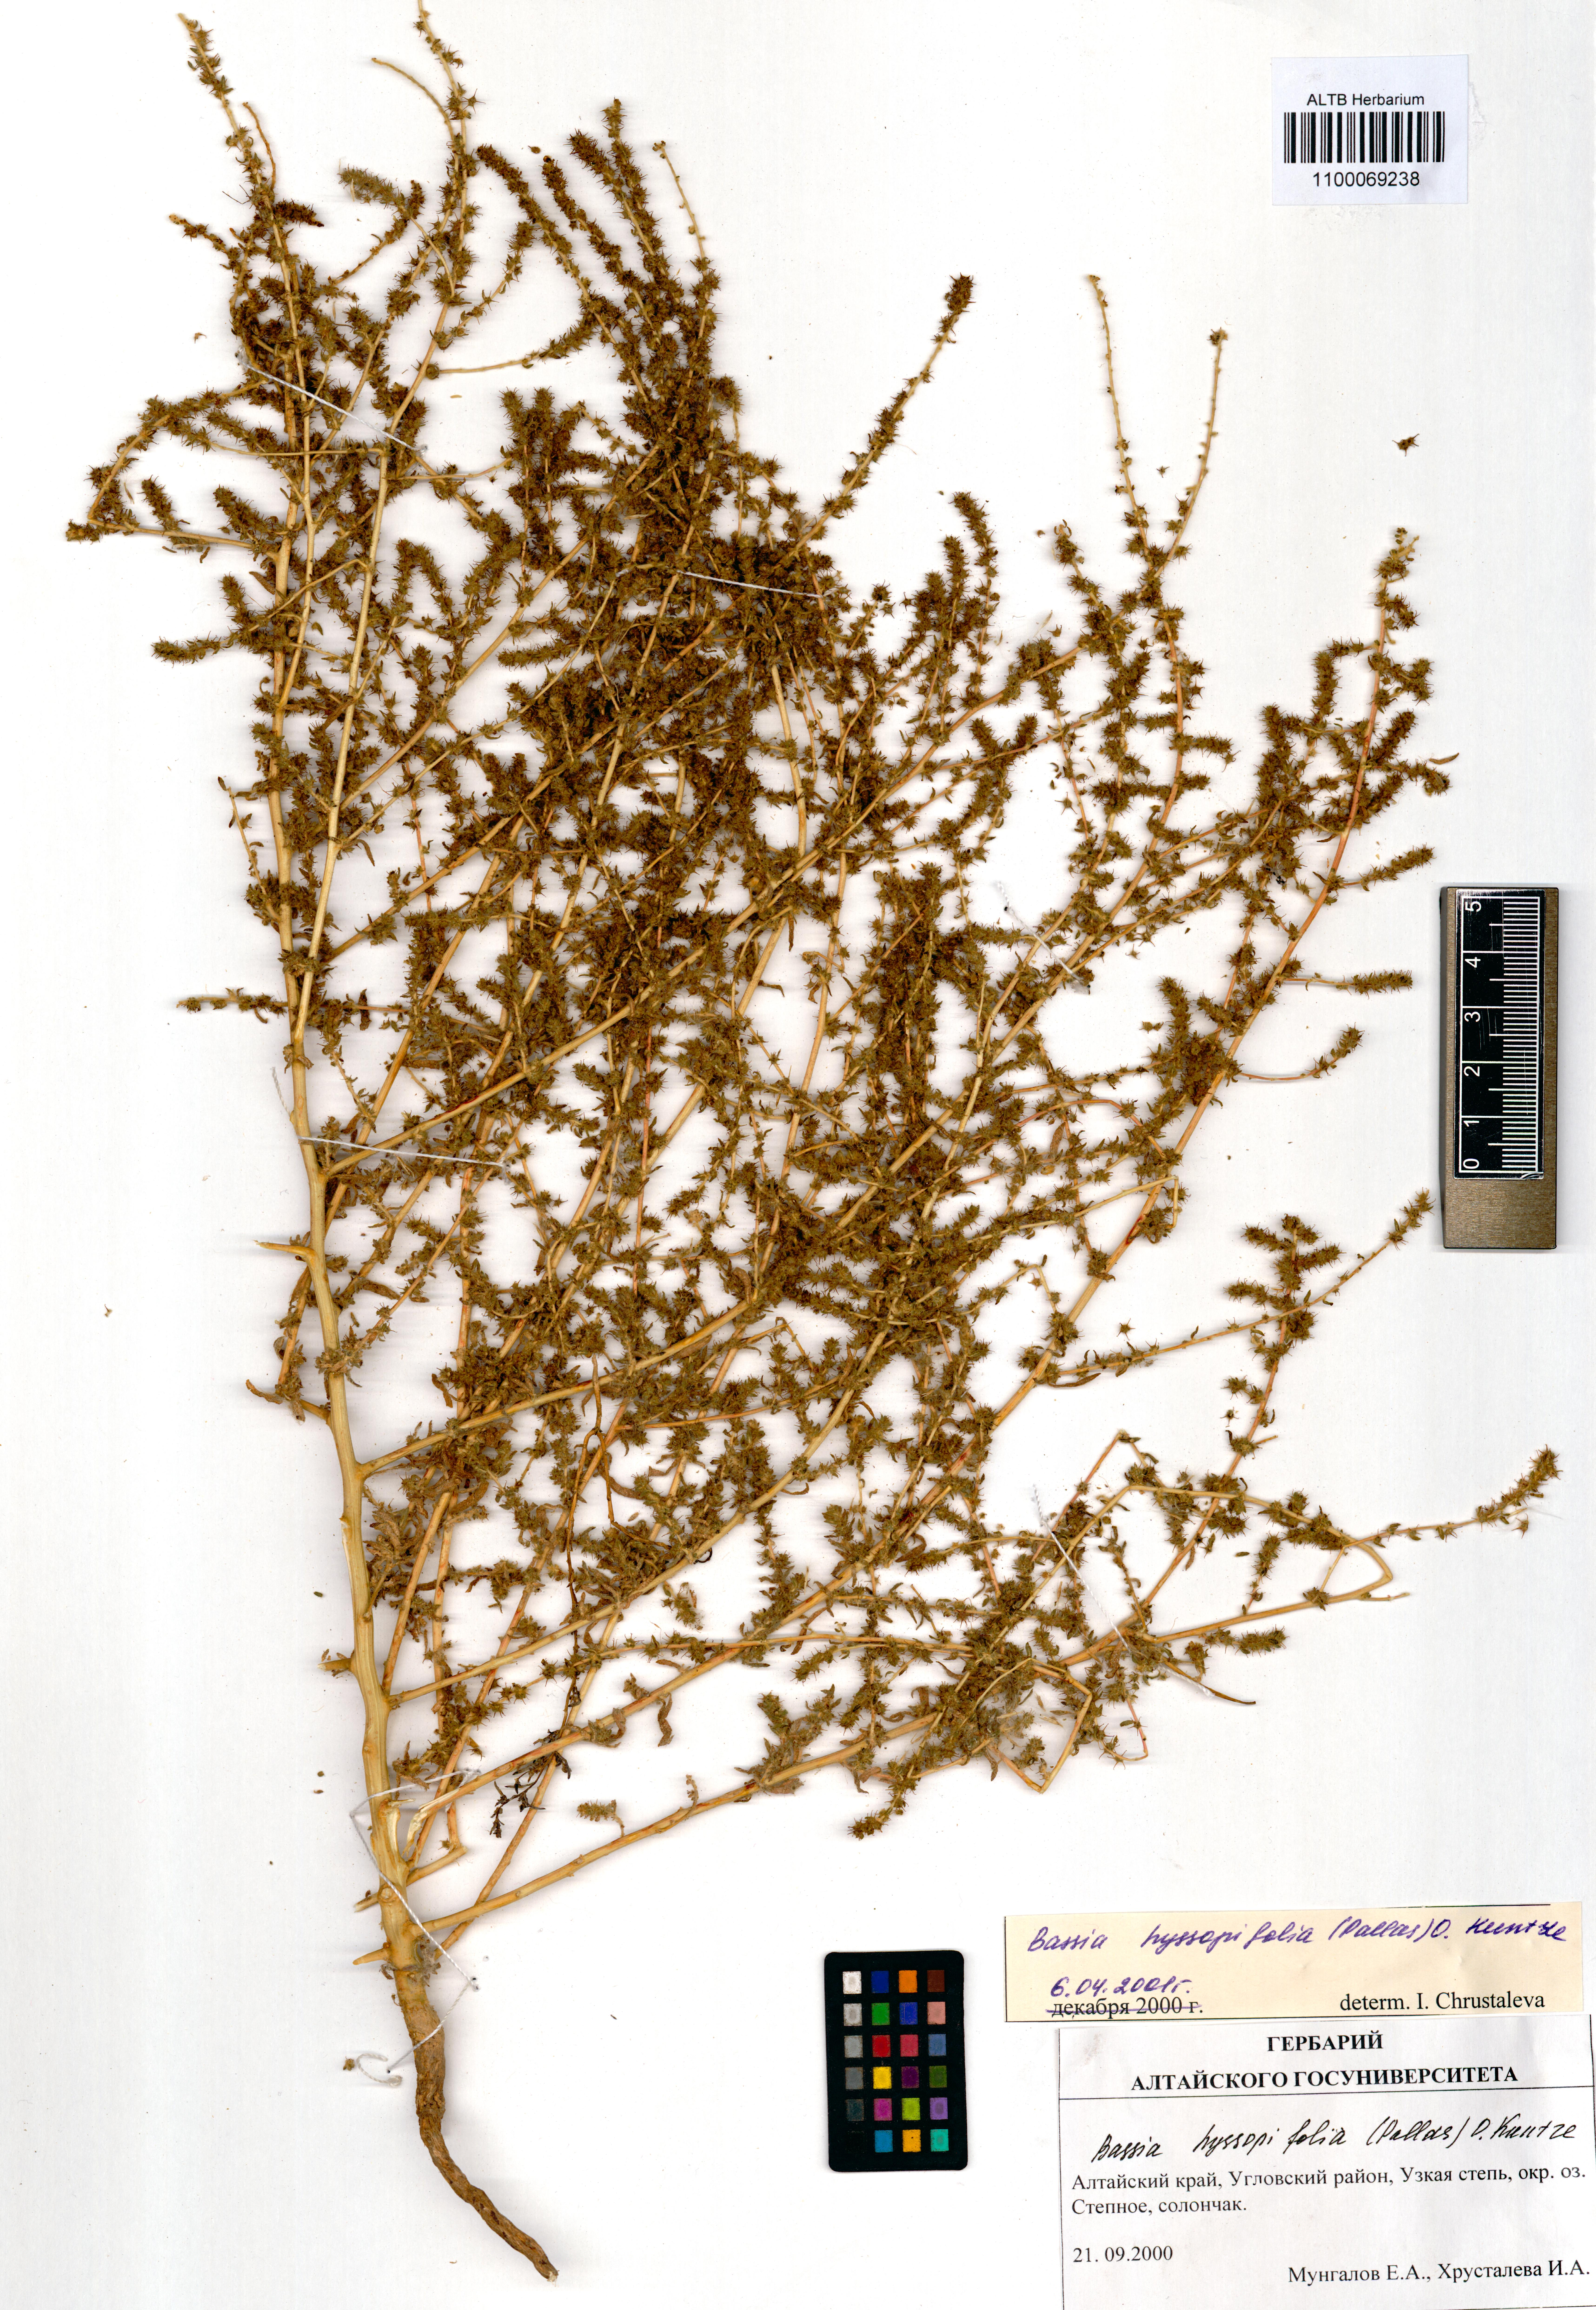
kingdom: Plantae
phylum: Tracheophyta
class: Magnoliopsida
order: Caryophyllales
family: Amaranthaceae
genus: Bassia
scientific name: Bassia hyssopifolia
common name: Fivehorn smotherweed
